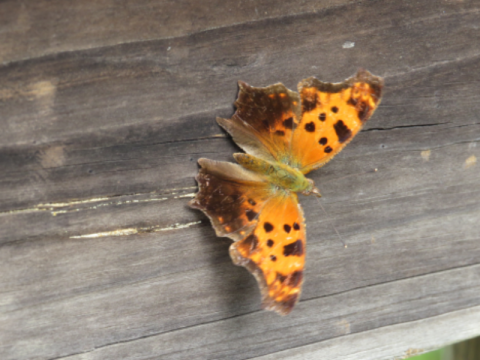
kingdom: Animalia
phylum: Arthropoda
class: Insecta
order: Lepidoptera
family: Nymphalidae
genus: Polygonia
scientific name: Polygonia comma
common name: Eastern Comma
